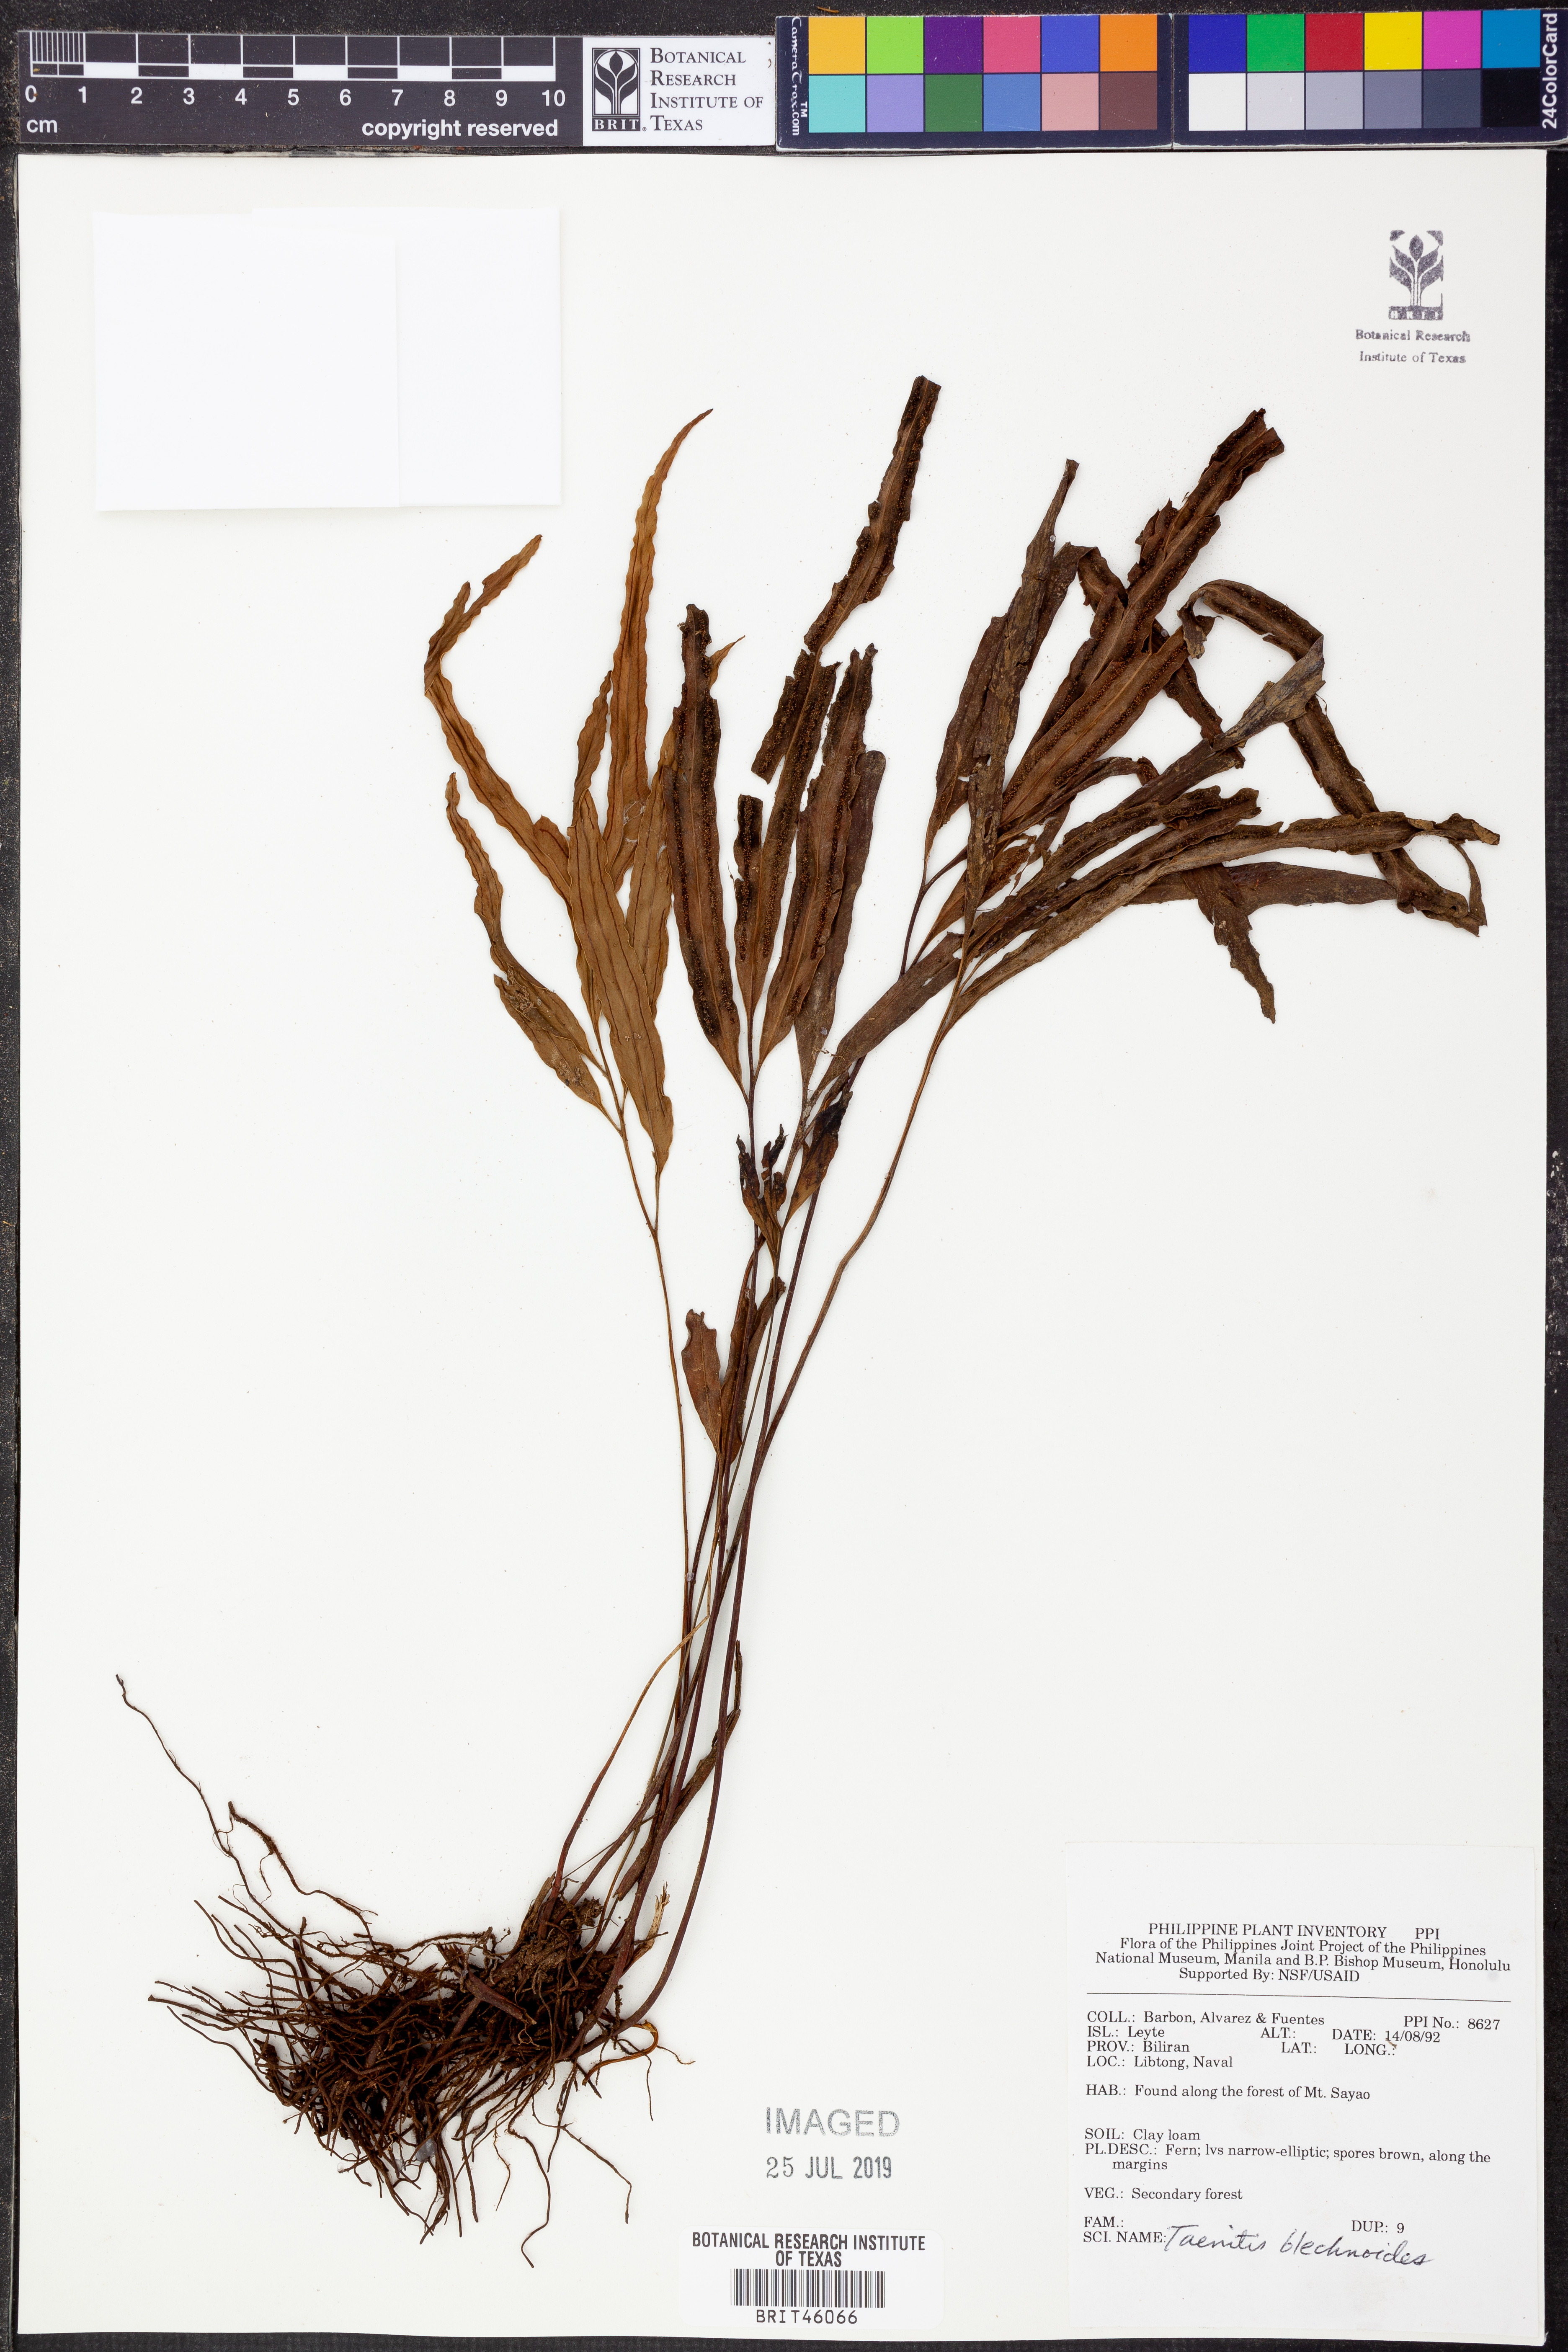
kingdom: Plantae
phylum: Tracheophyta
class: Polypodiopsida
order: Polypodiales
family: Pteridaceae
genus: Taenitis
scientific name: Taenitis blechnoides
